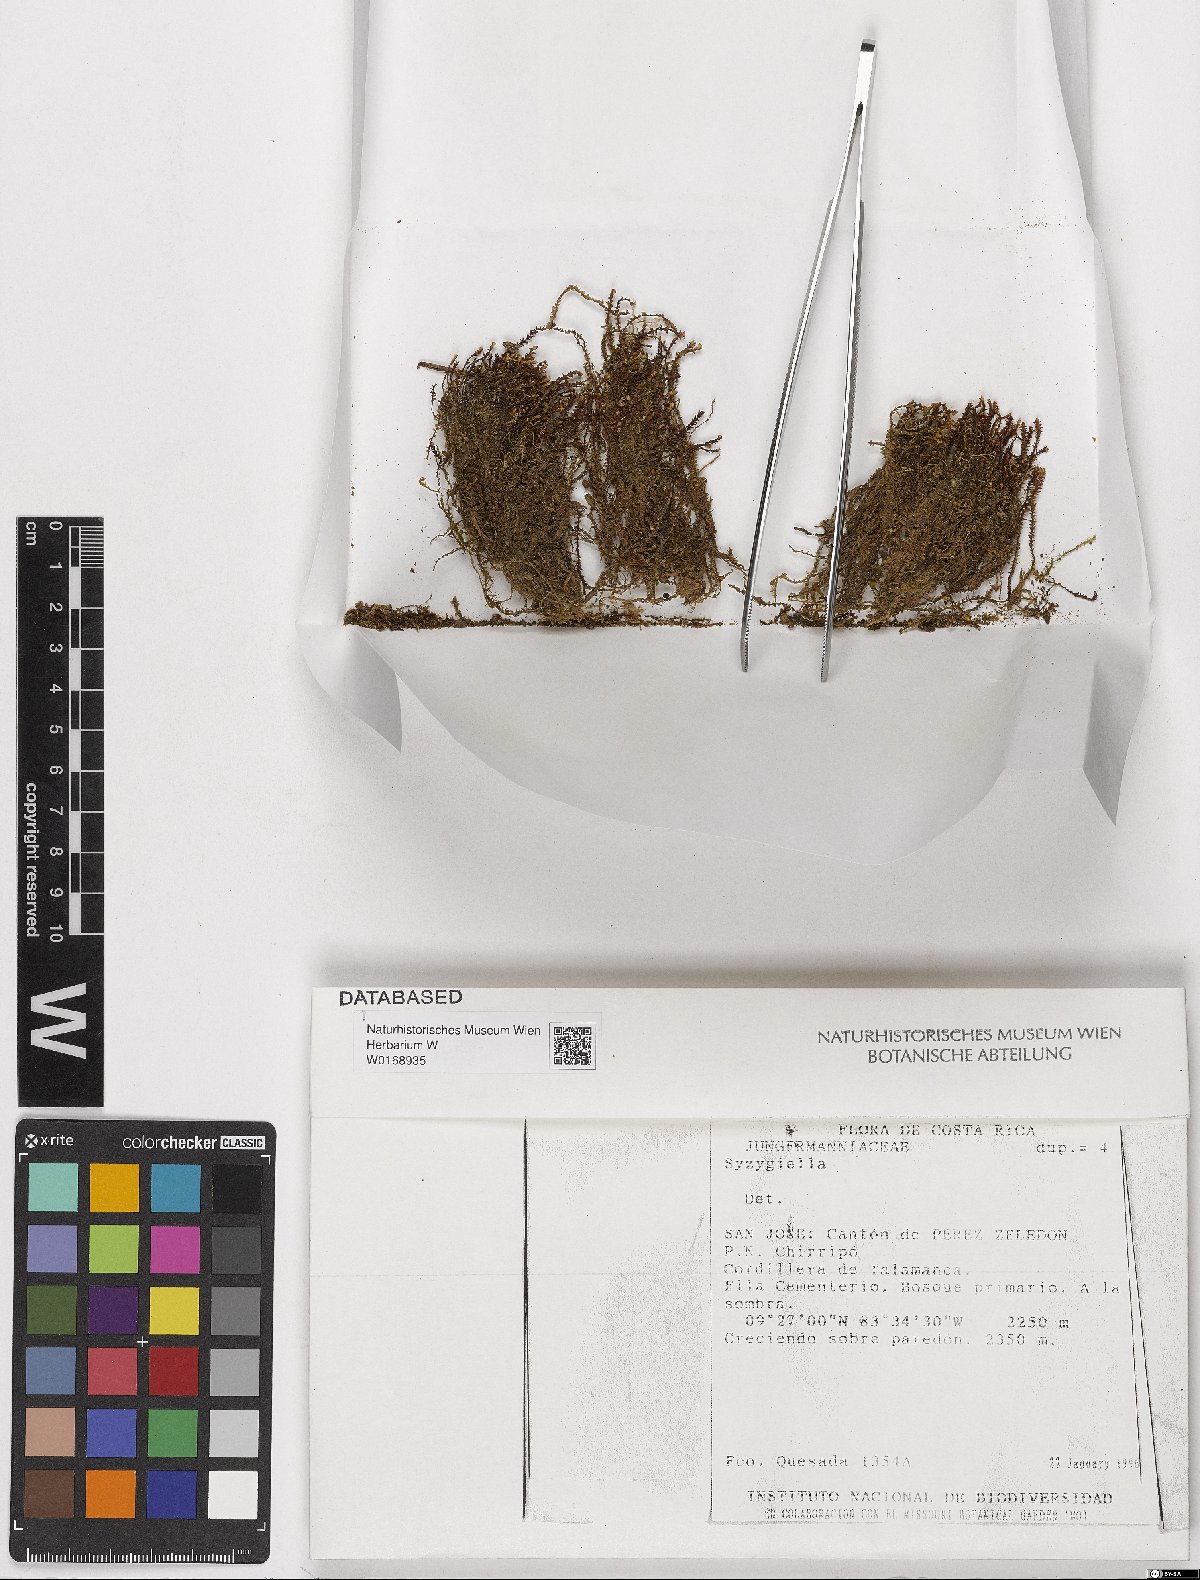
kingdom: Plantae
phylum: Marchantiophyta
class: Jungermanniopsida
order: Jungermanniales
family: Adelanthaceae
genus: Syzygiella
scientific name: Syzygiella
